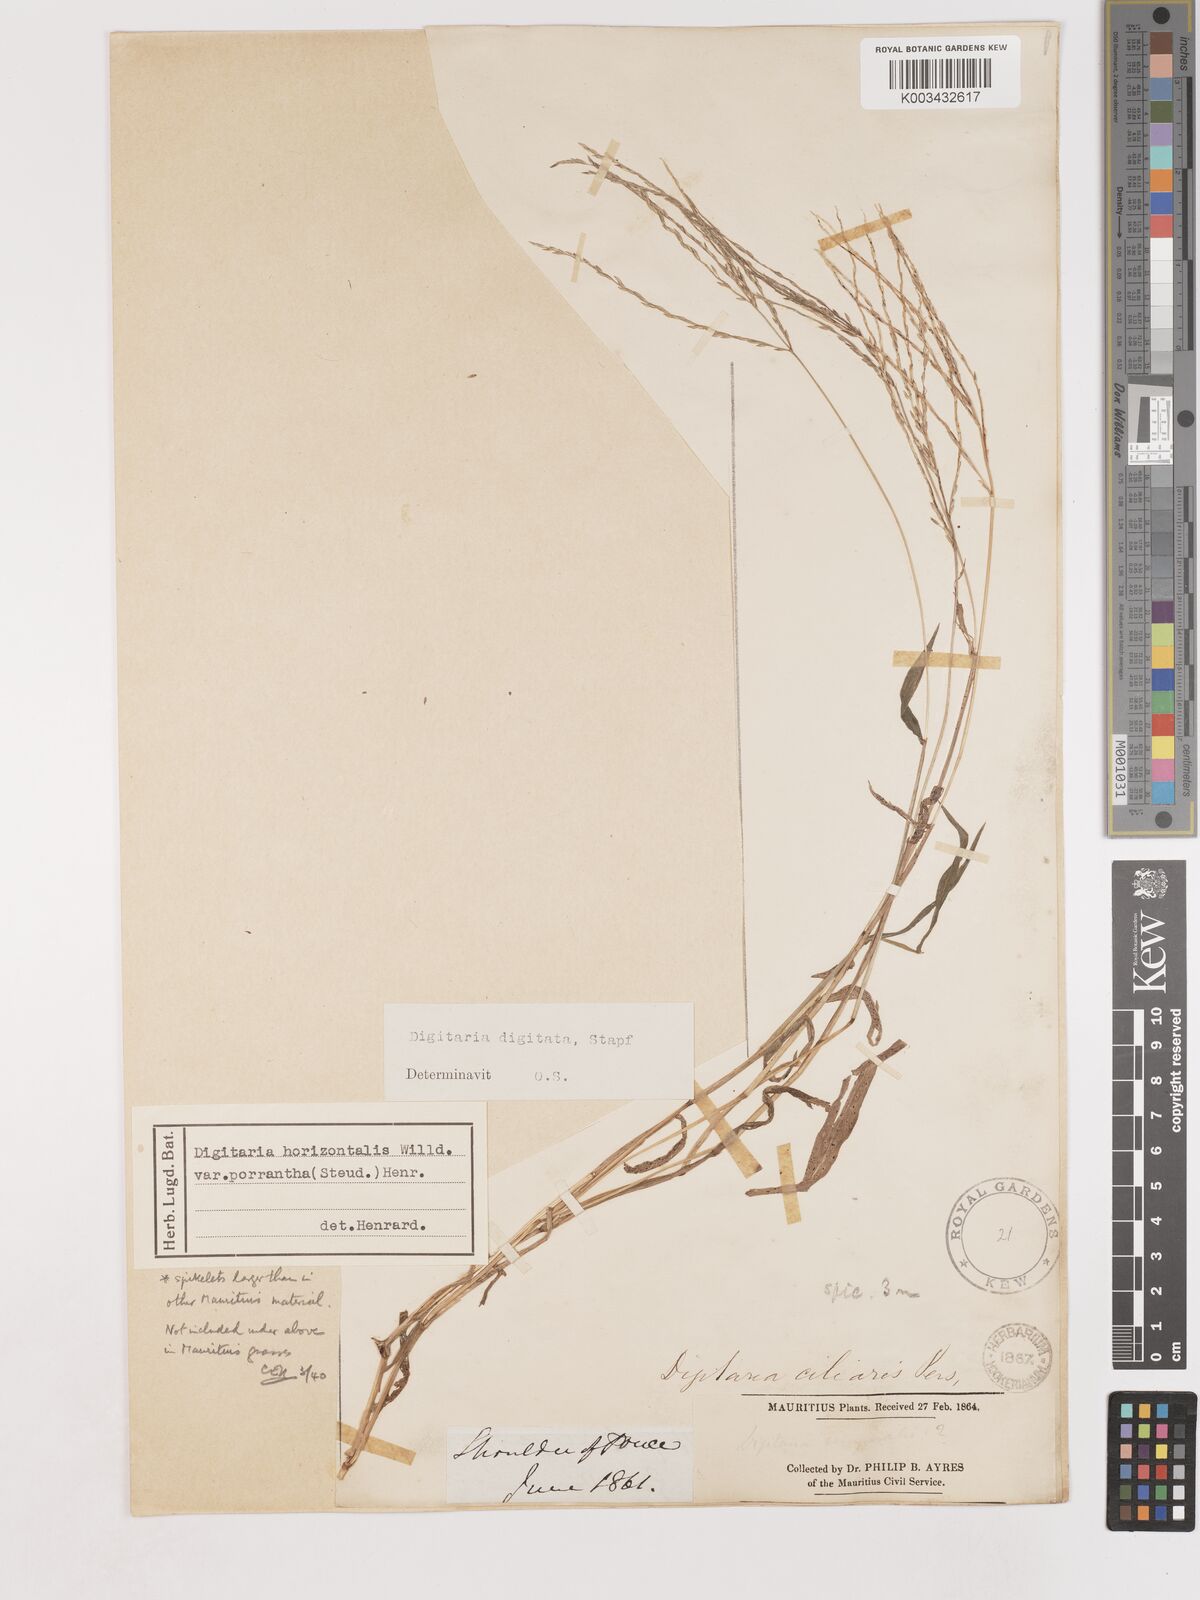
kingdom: Plantae
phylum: Tracheophyta
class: Liliopsida
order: Poales
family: Poaceae
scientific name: Poaceae
